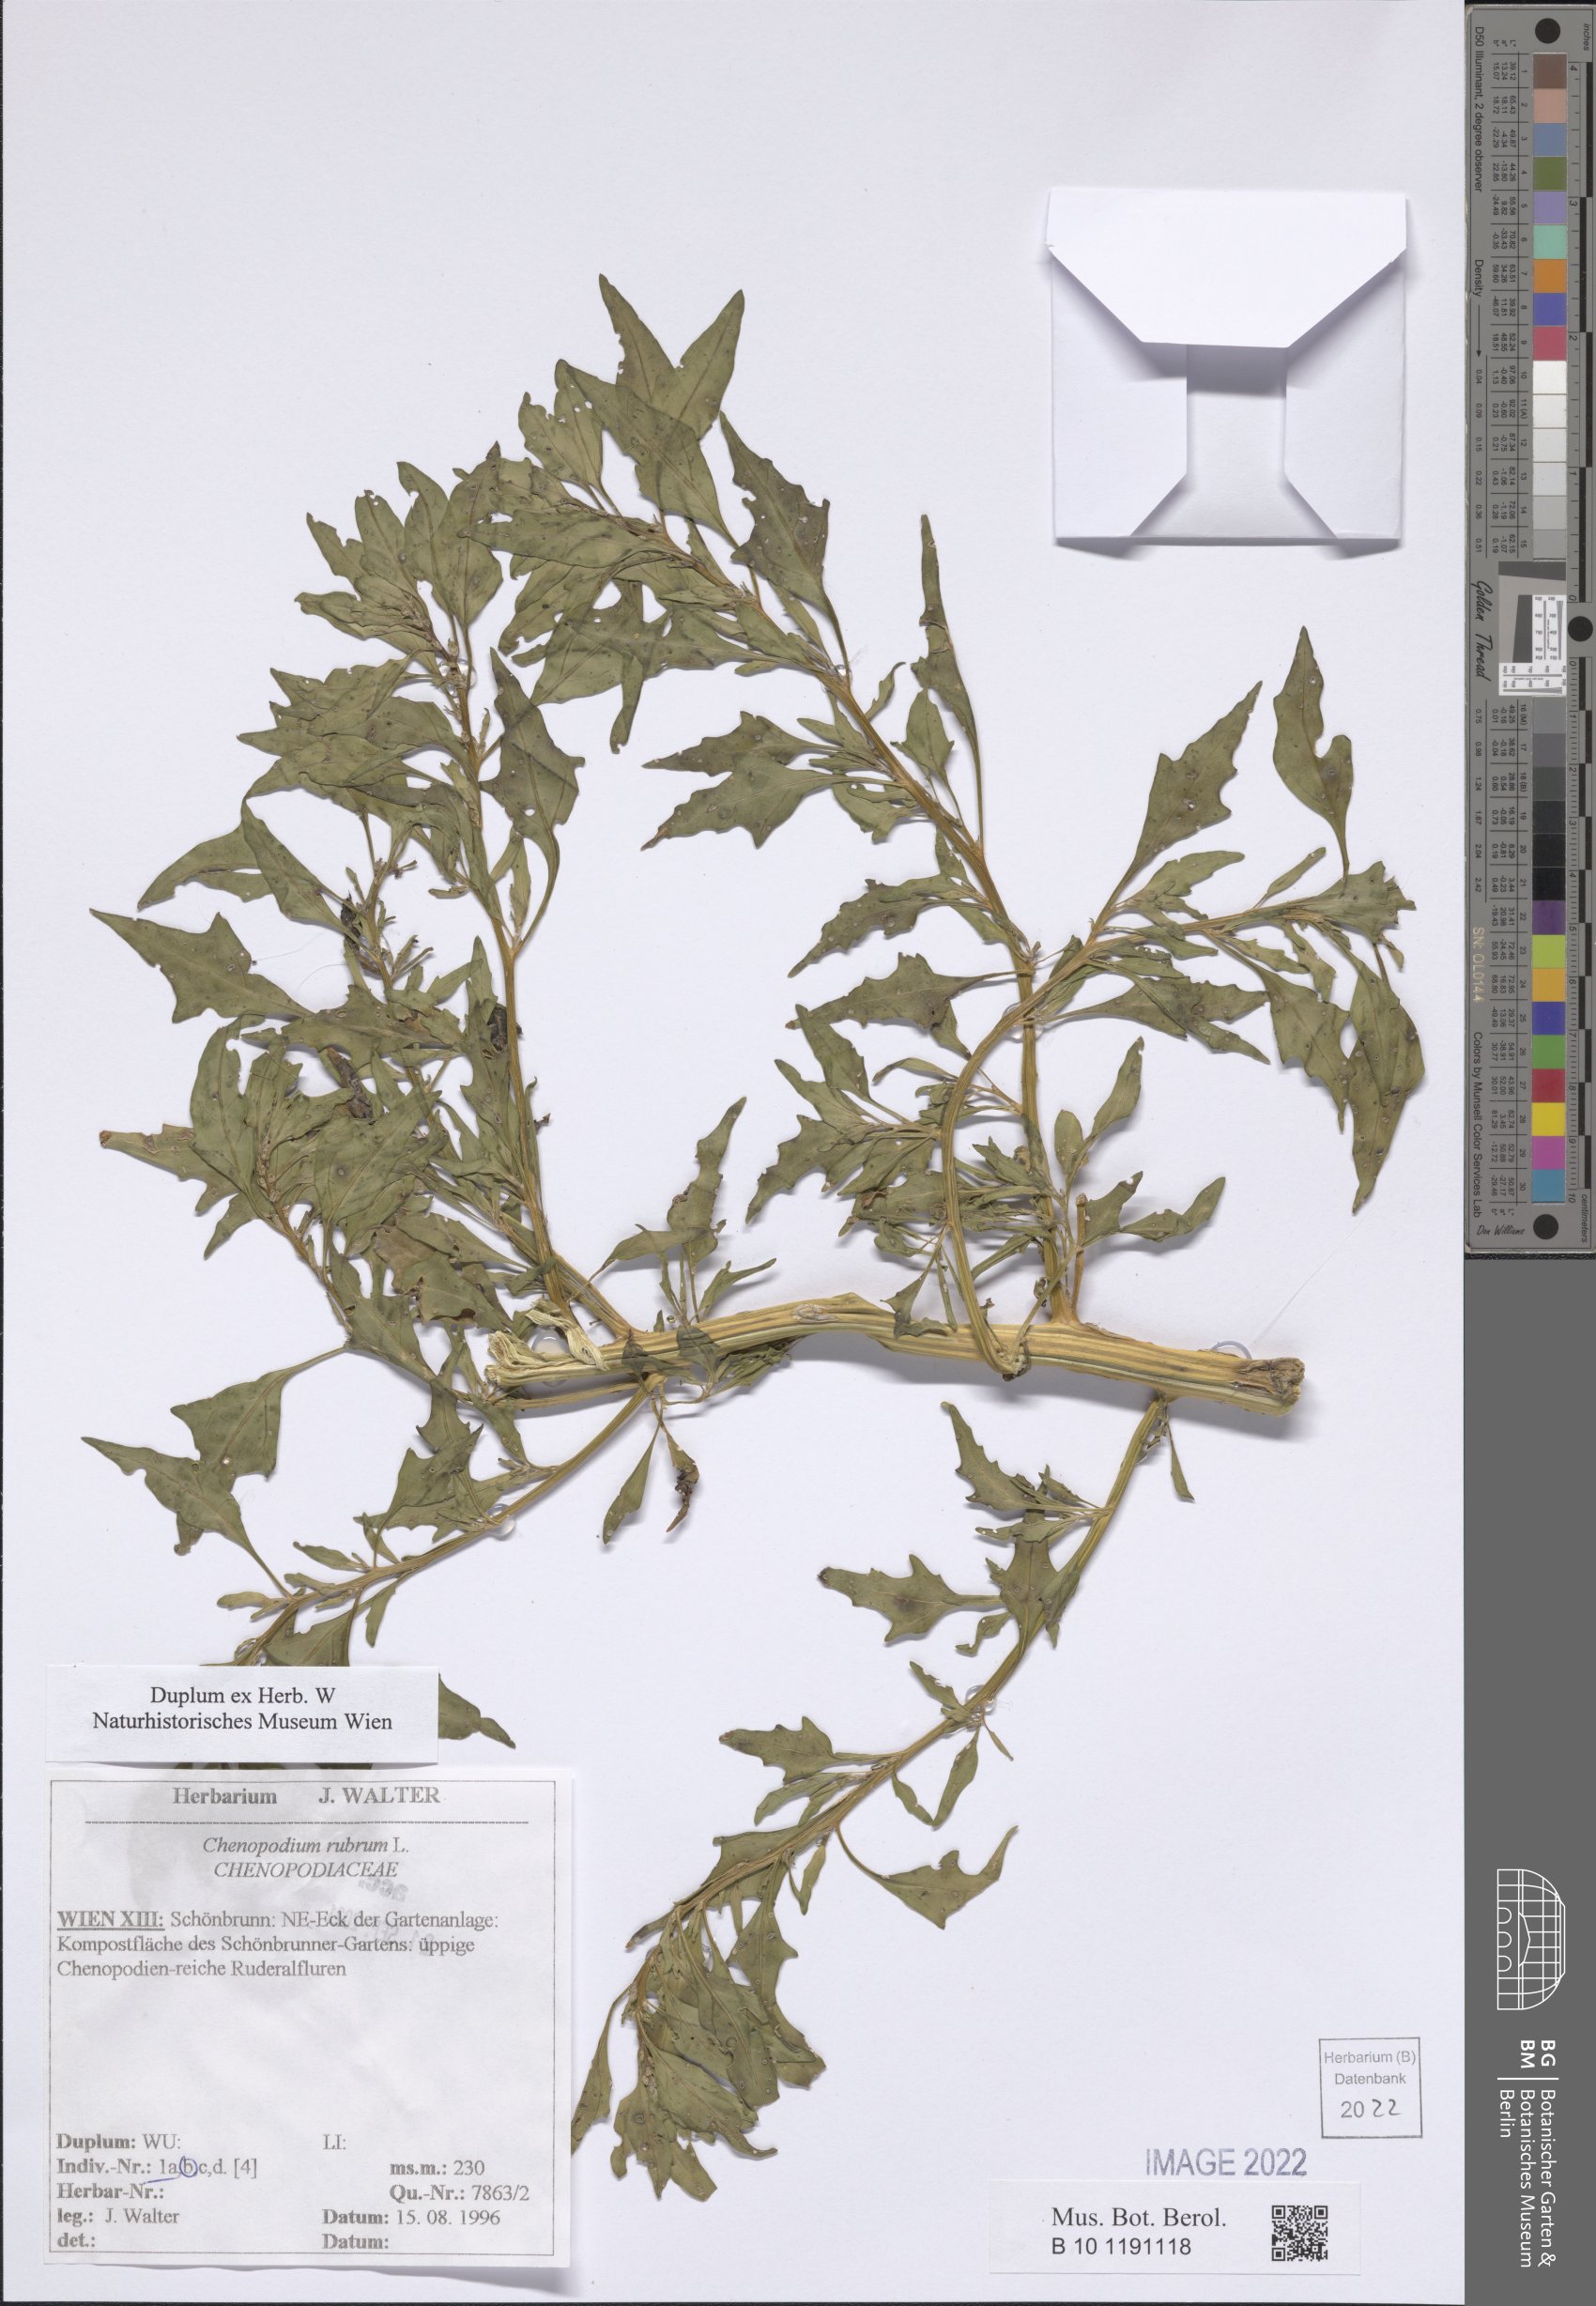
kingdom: Plantae
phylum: Tracheophyta
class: Magnoliopsida
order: Caryophyllales
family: Amaranthaceae
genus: Oxybasis
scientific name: Oxybasis rubra
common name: Red goosefoot
